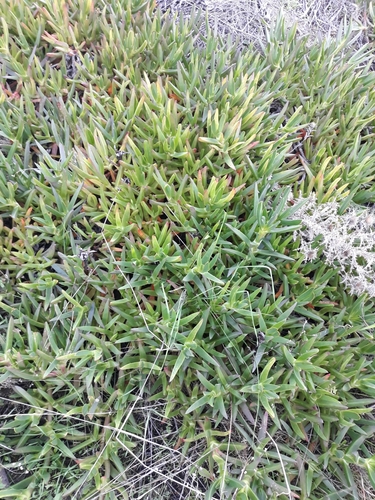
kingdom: Plantae
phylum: Tracheophyta
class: Magnoliopsida
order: Caryophyllales
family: Aizoaceae
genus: Carpobrotus
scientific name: Carpobrotus edulis
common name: Hottentot-fig
